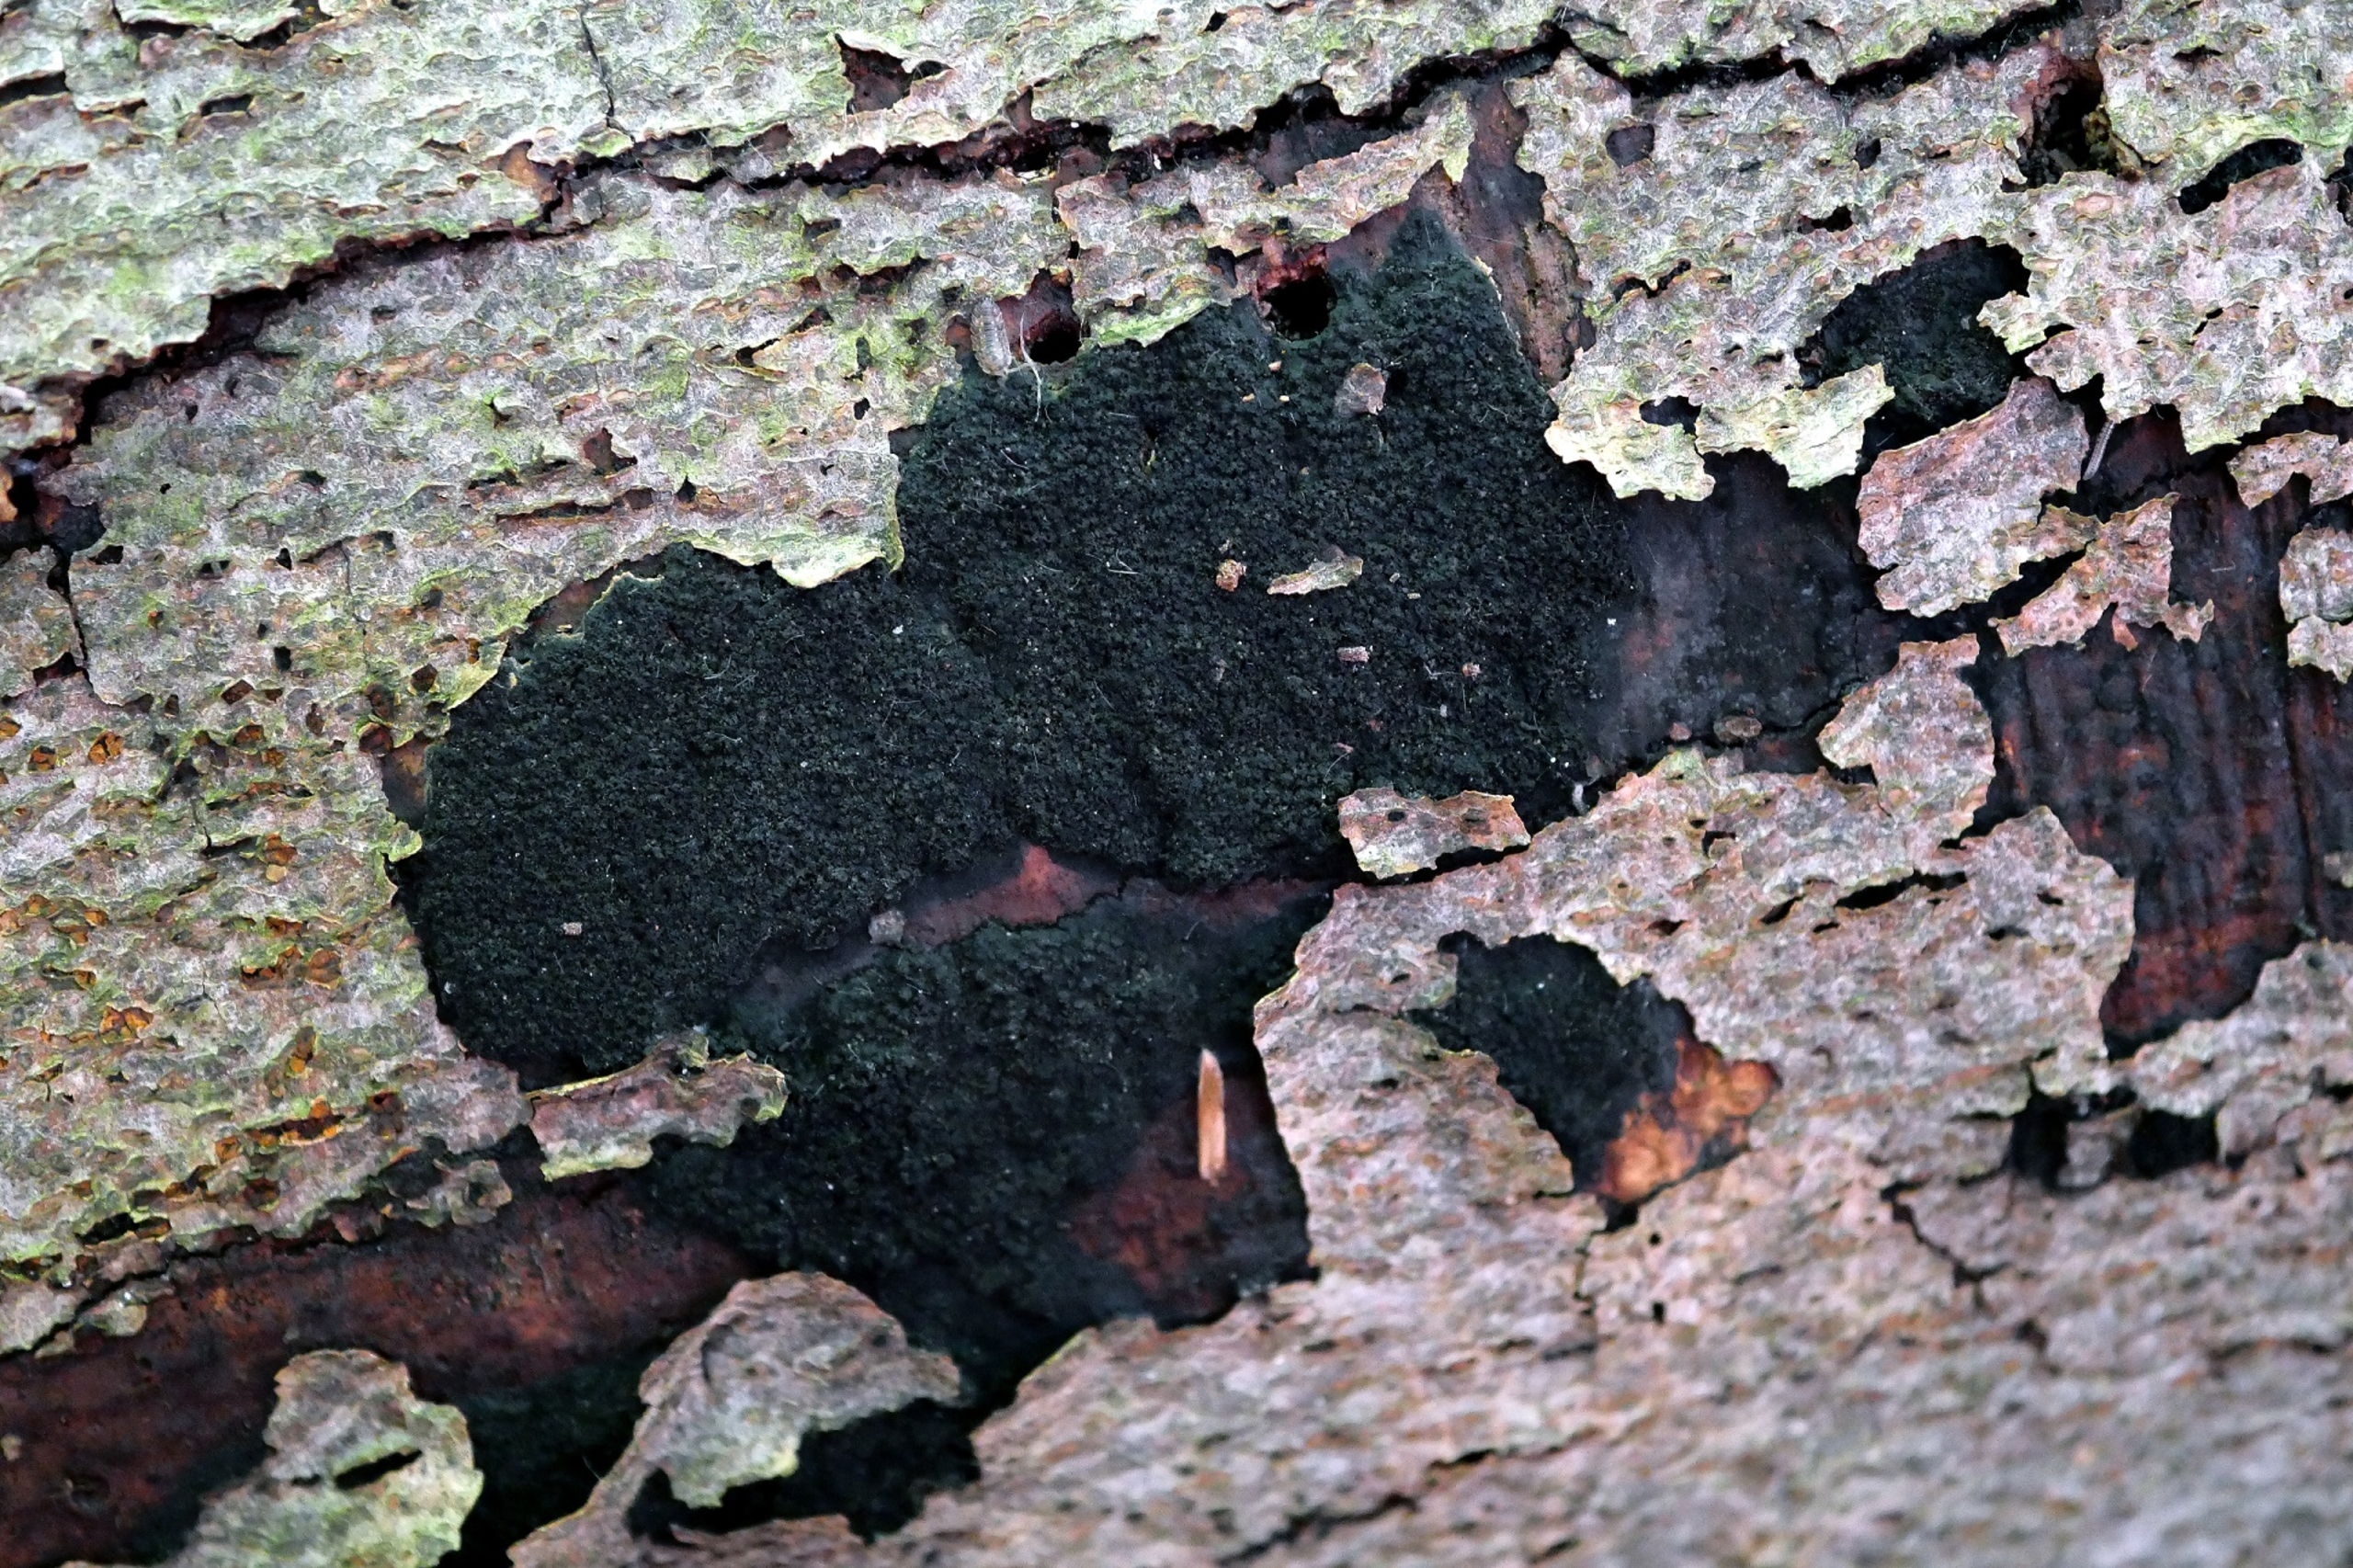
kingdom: Fungi
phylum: Ascomycota
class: Sordariomycetes
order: Xylariales
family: Diatrypaceae
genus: Eutypa
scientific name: Eutypa spinosa
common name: Grov kulskorpe
